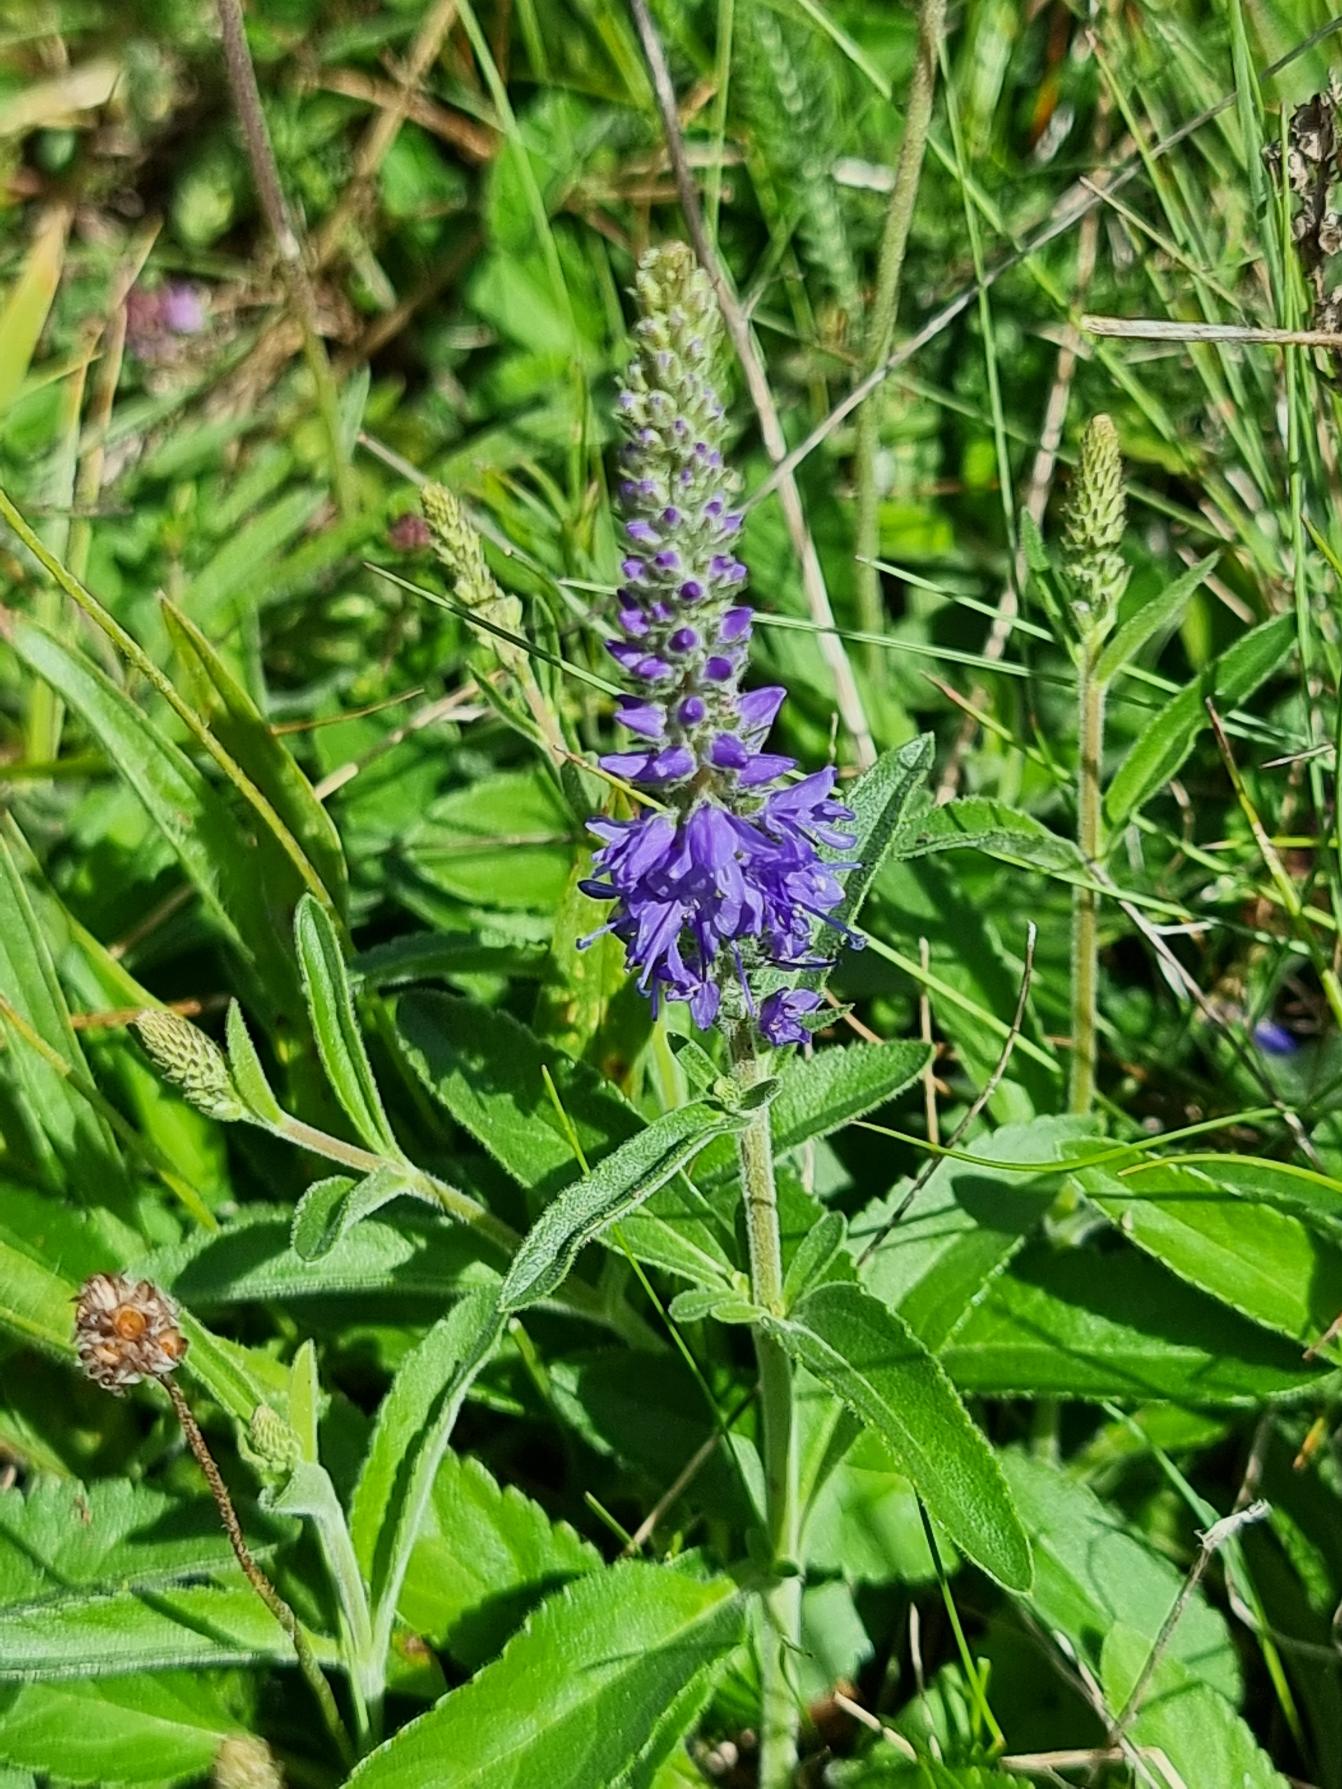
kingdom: Plantae
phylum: Tracheophyta
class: Magnoliopsida
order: Lamiales
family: Plantaginaceae
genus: Veronica
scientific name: Veronica spicata
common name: Aks-ærenpris
